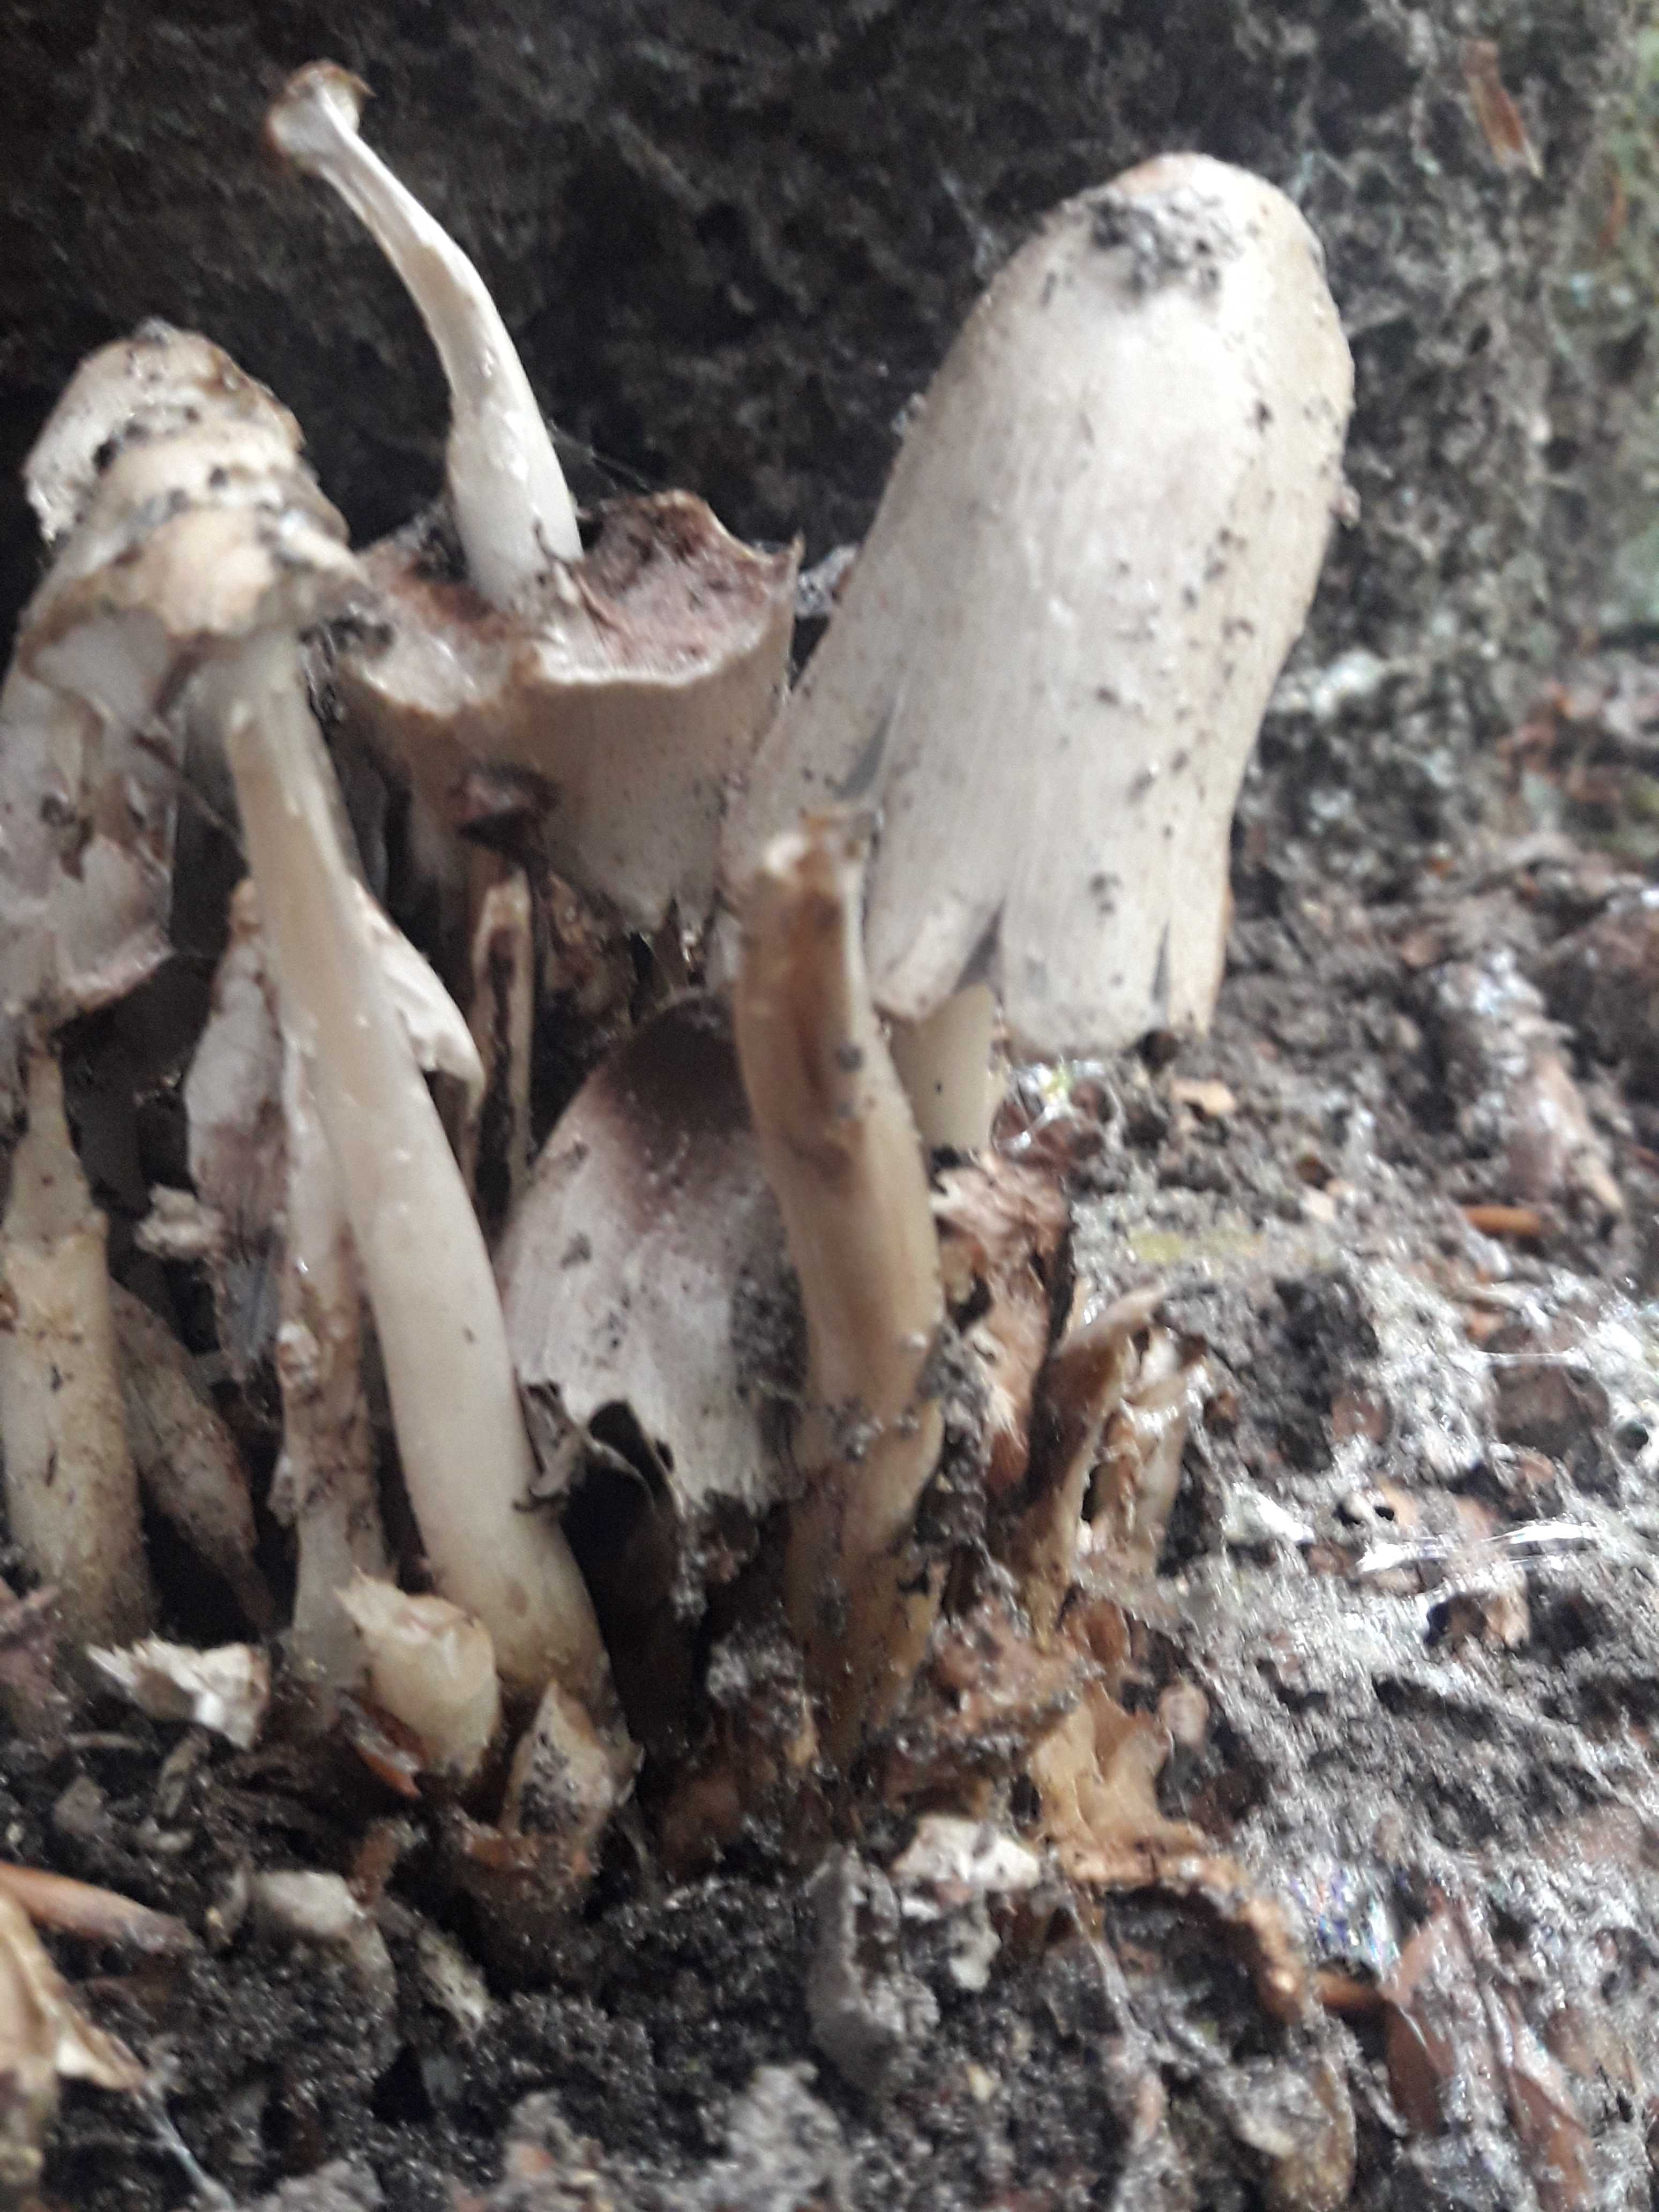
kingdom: Fungi
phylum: Basidiomycota
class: Agaricomycetes
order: Agaricales
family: Psathyrellaceae
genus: Coprinopsis
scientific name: Coprinopsis
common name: blækhat
